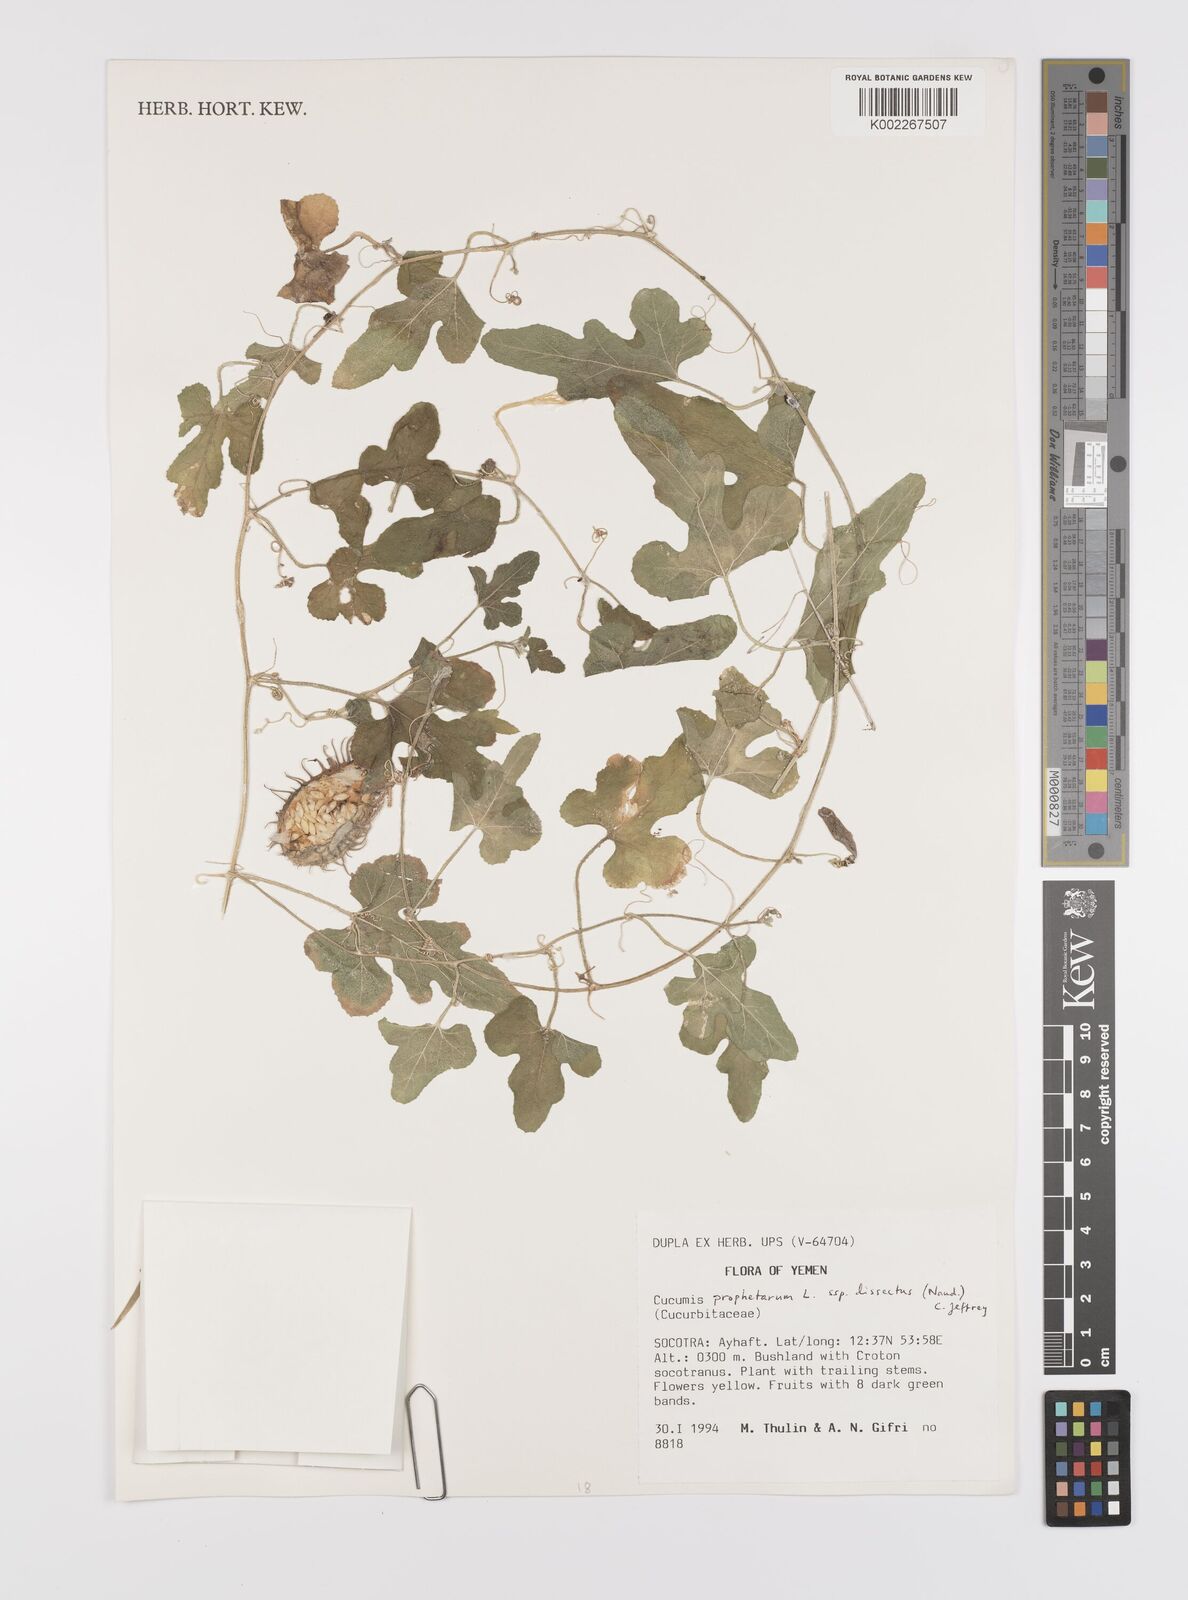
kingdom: Plantae
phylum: Tracheophyta
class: Magnoliopsida
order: Cucurbitales
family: Cucurbitaceae
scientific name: Cucurbitaceae
